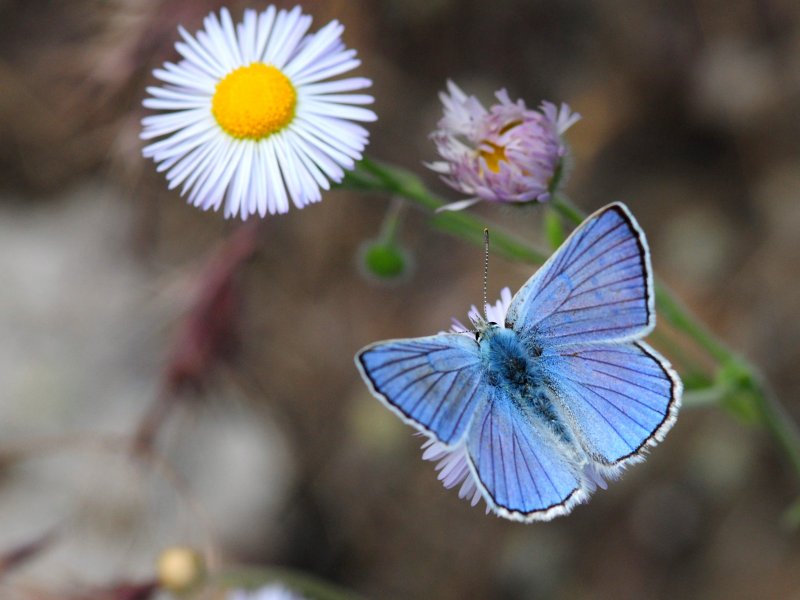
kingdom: Animalia
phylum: Arthropoda
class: Insecta
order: Lepidoptera
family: Lycaenidae
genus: Lycaena
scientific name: Lycaena heteronea
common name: Blue Copper
